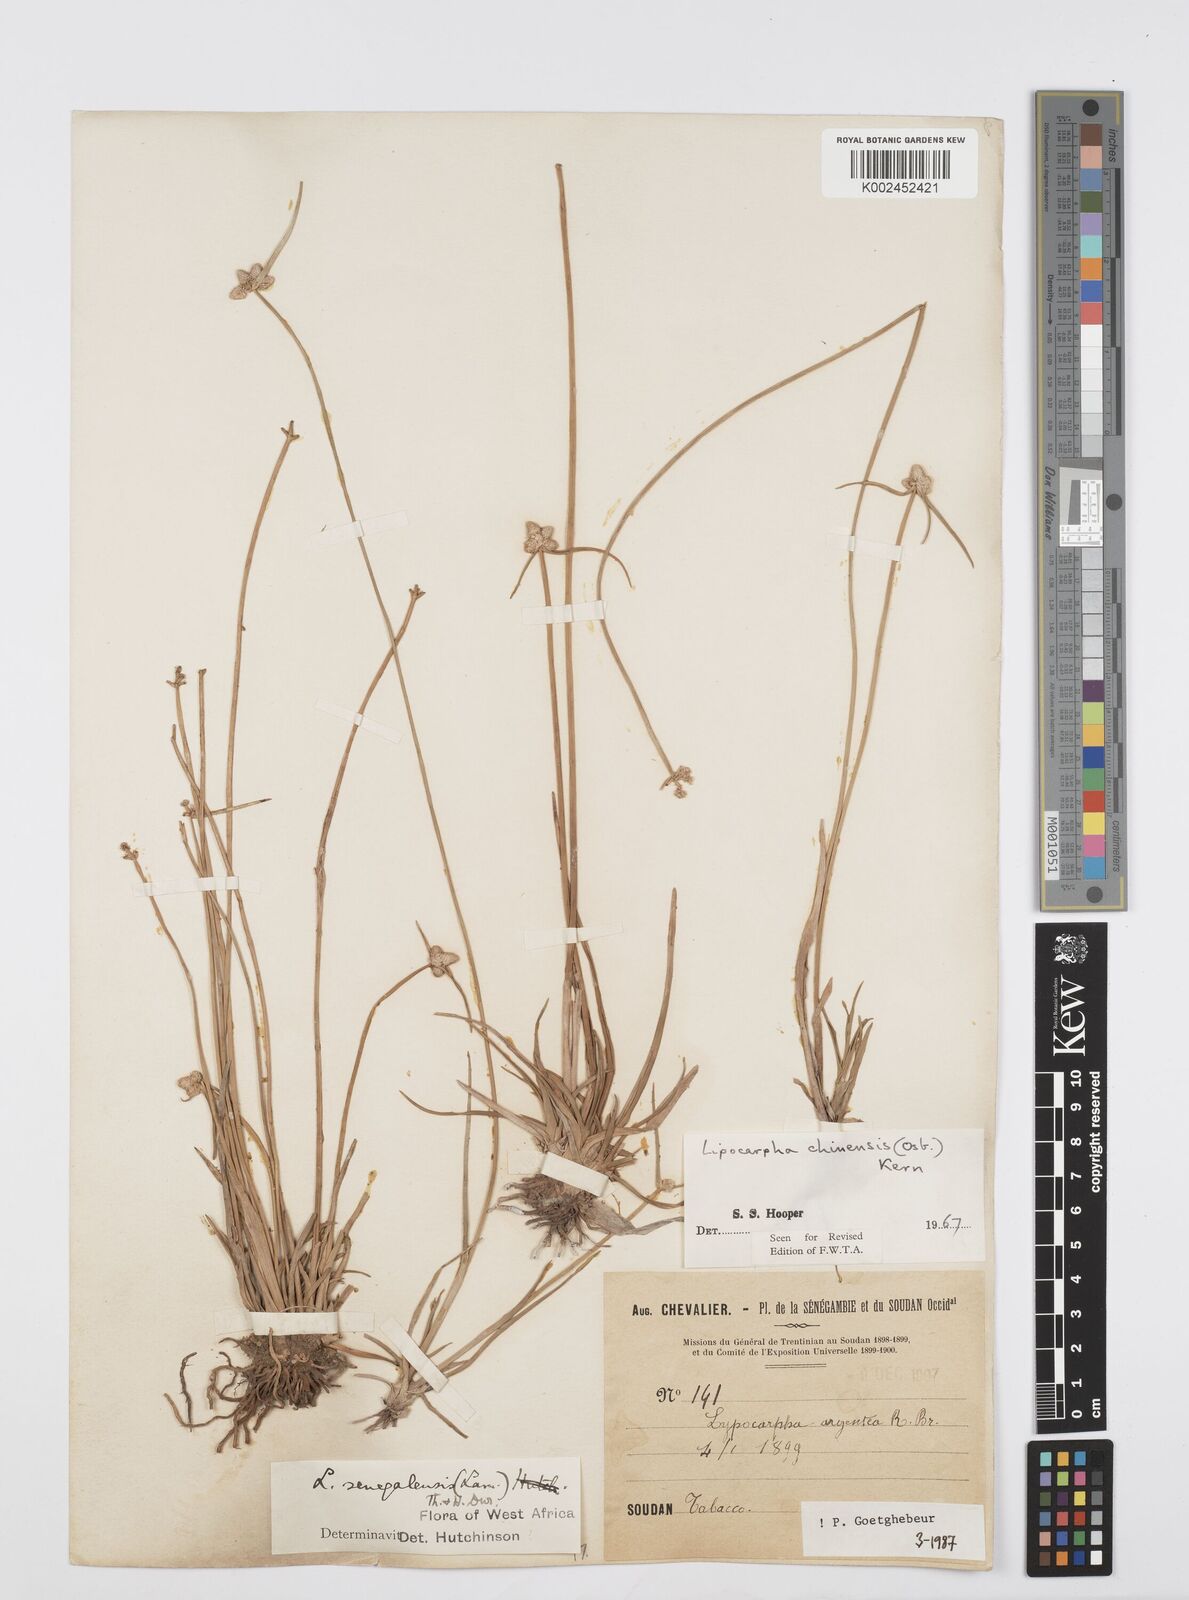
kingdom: Plantae
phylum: Tracheophyta
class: Liliopsida
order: Poales
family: Cyperaceae
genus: Cyperus
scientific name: Cyperus albescens
